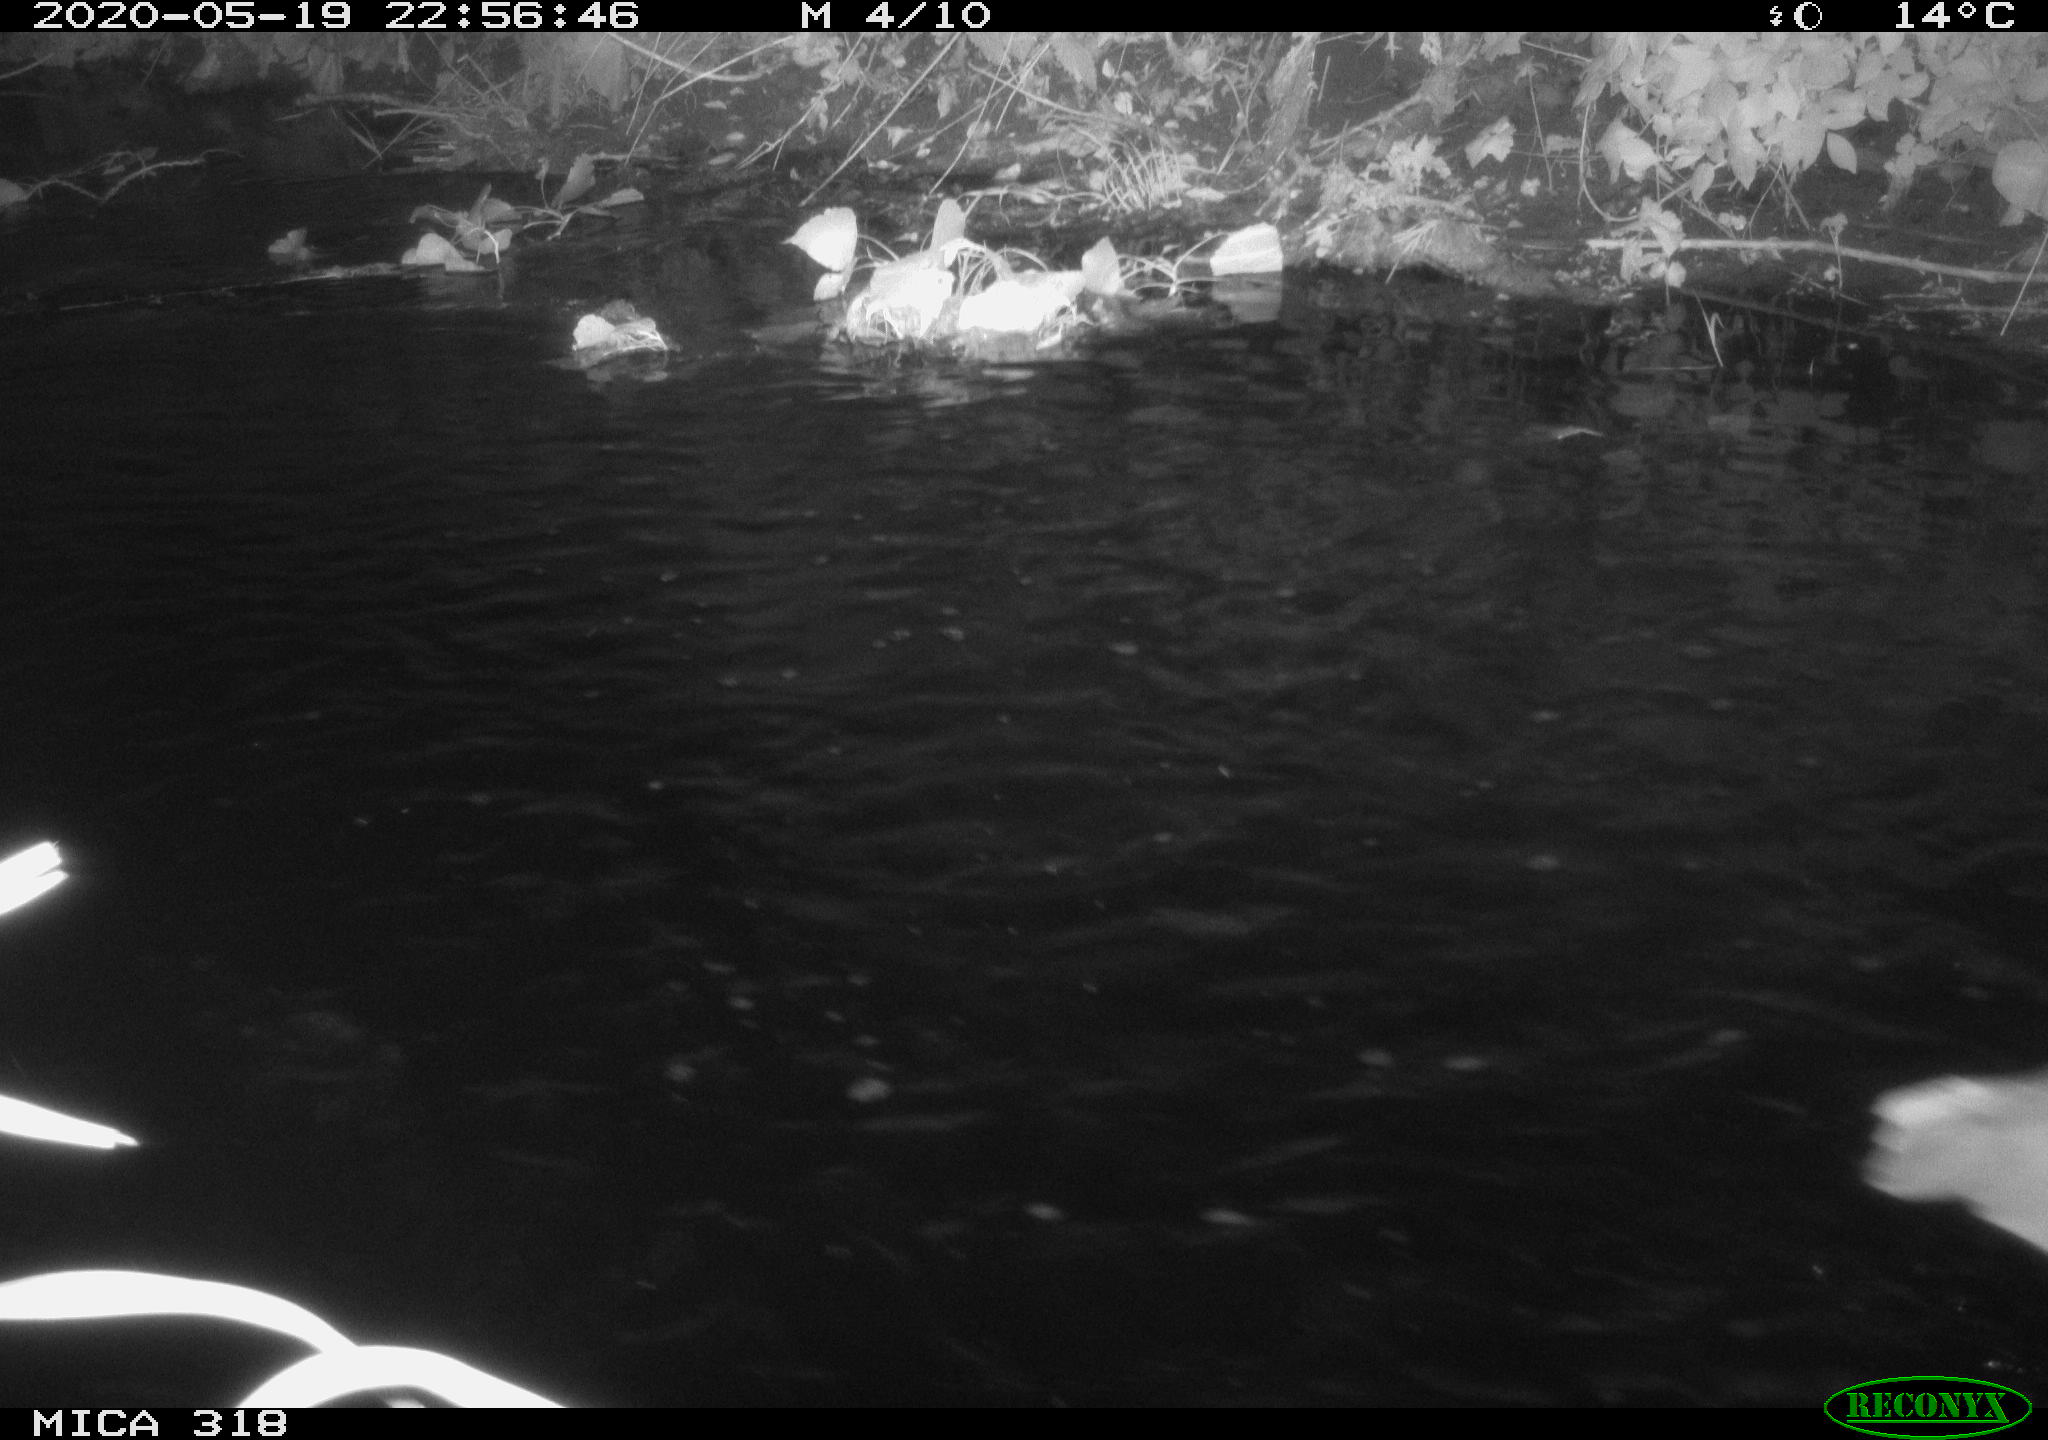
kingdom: Animalia
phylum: Chordata
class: Aves
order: Pelecaniformes
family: Ardeidae
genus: Ardea
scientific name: Ardea cinerea
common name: Grey heron
